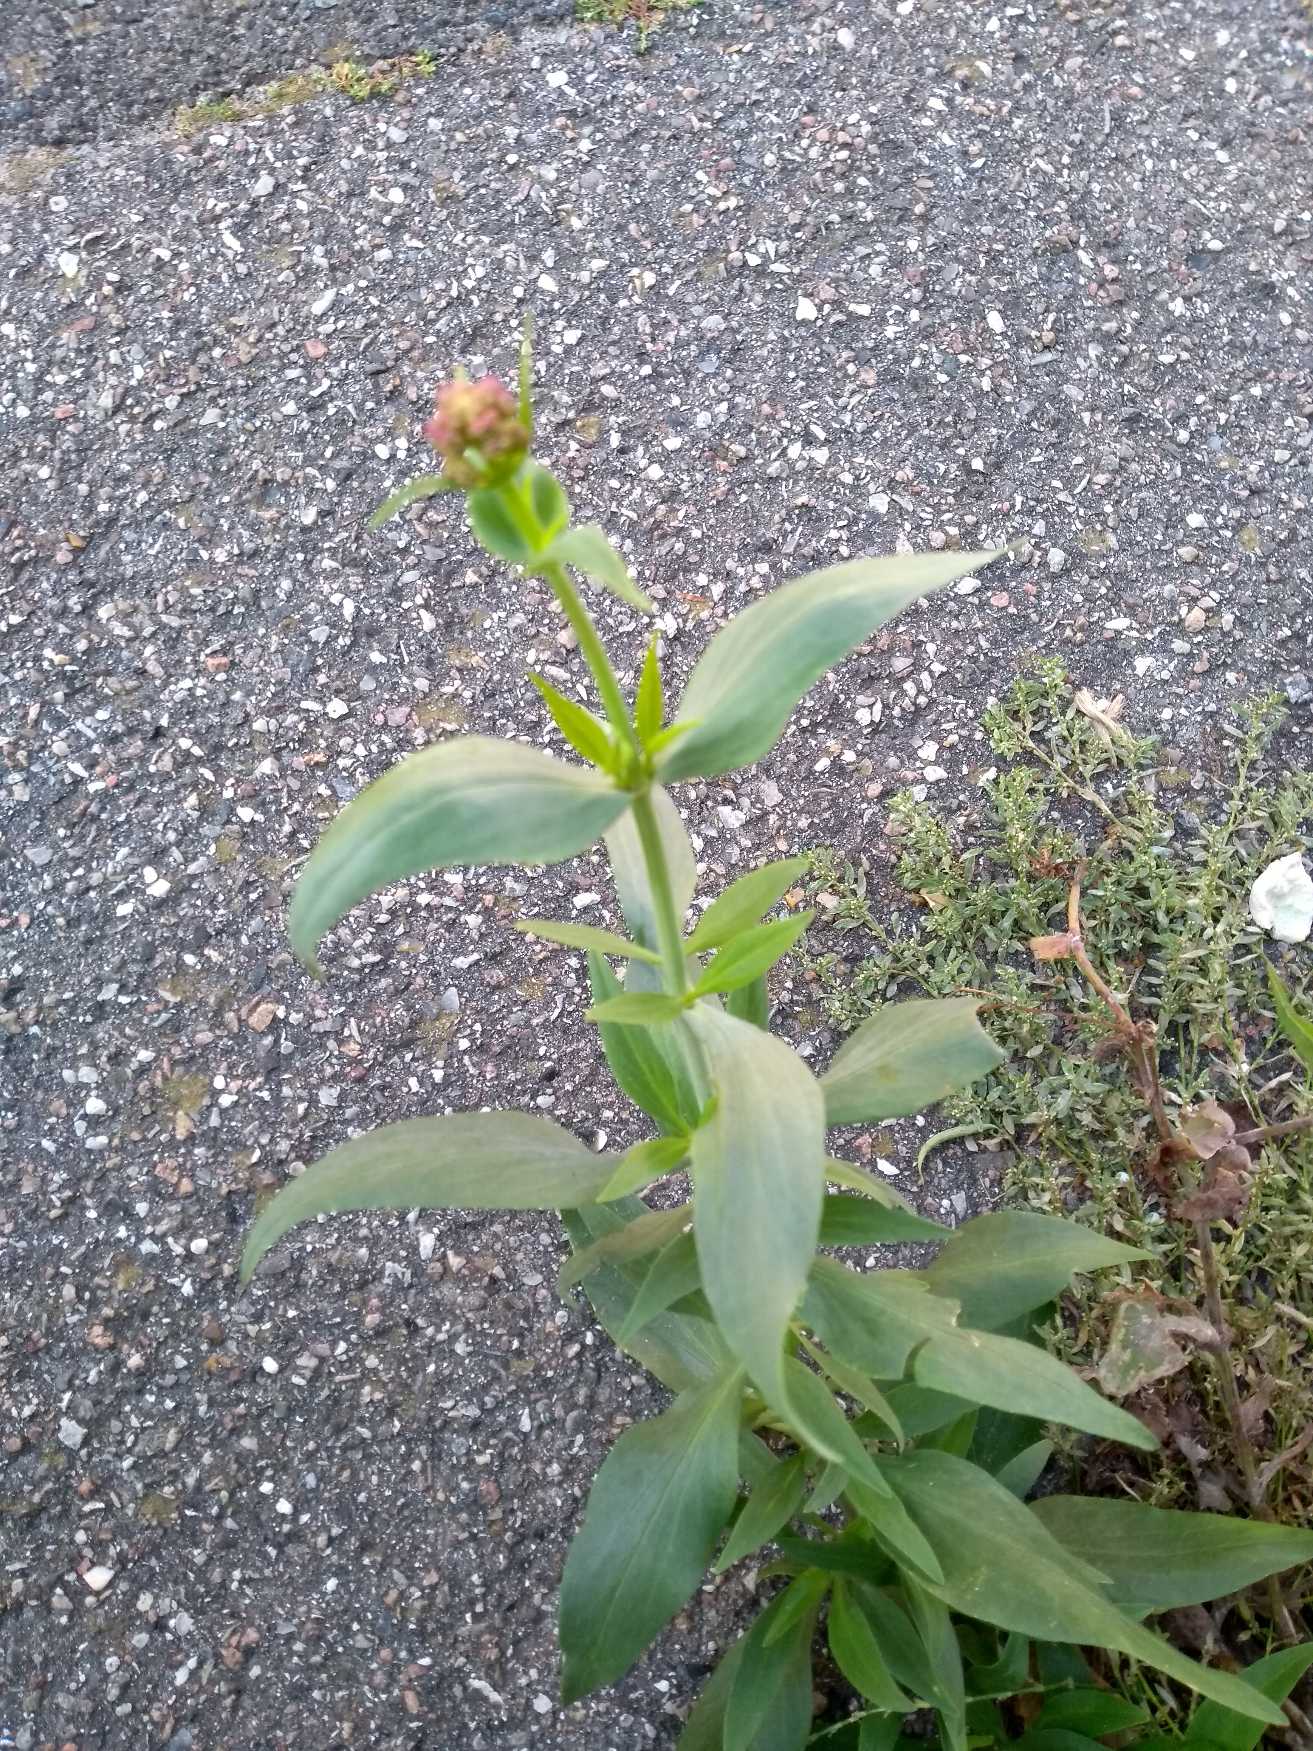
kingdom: Plantae
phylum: Tracheophyta
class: Magnoliopsida
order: Dipsacales
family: Caprifoliaceae
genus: Centranthus
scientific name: Centranthus ruber
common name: Sporebaldrian
